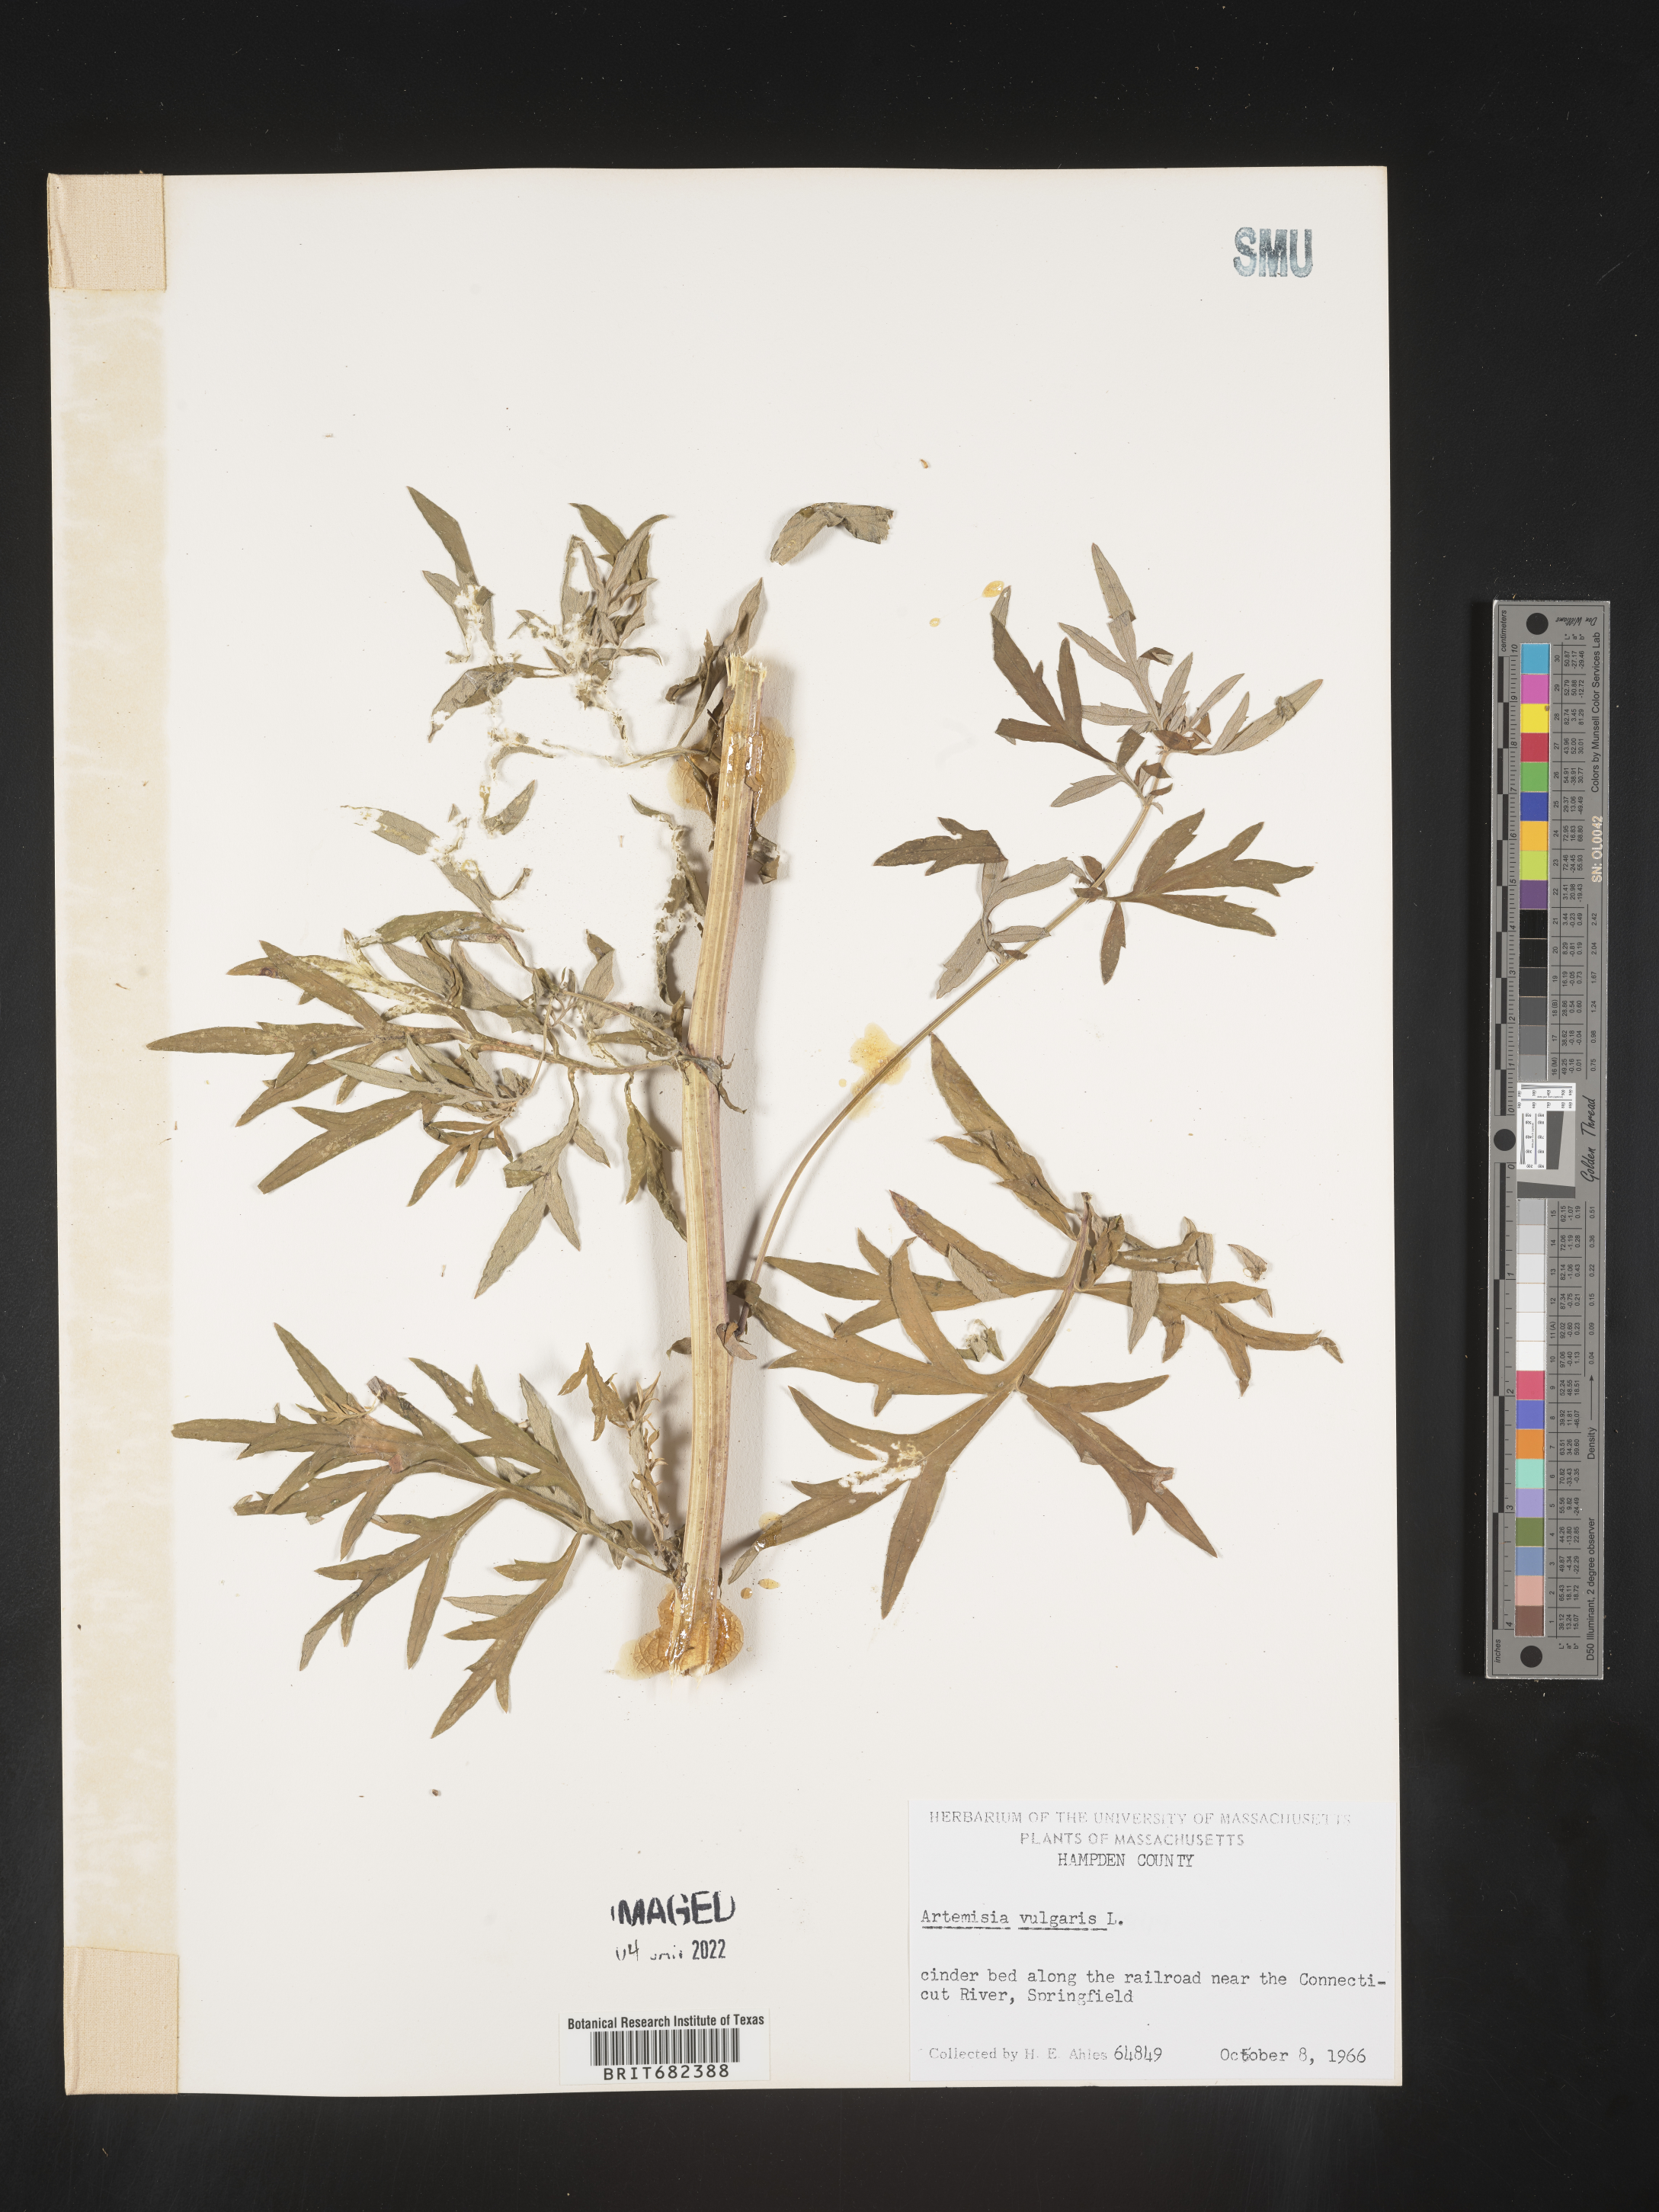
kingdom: Plantae
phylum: Tracheophyta
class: Magnoliopsida
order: Asterales
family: Asteraceae
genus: Artemisia
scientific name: Artemisia vulgaris
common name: Mugwort
